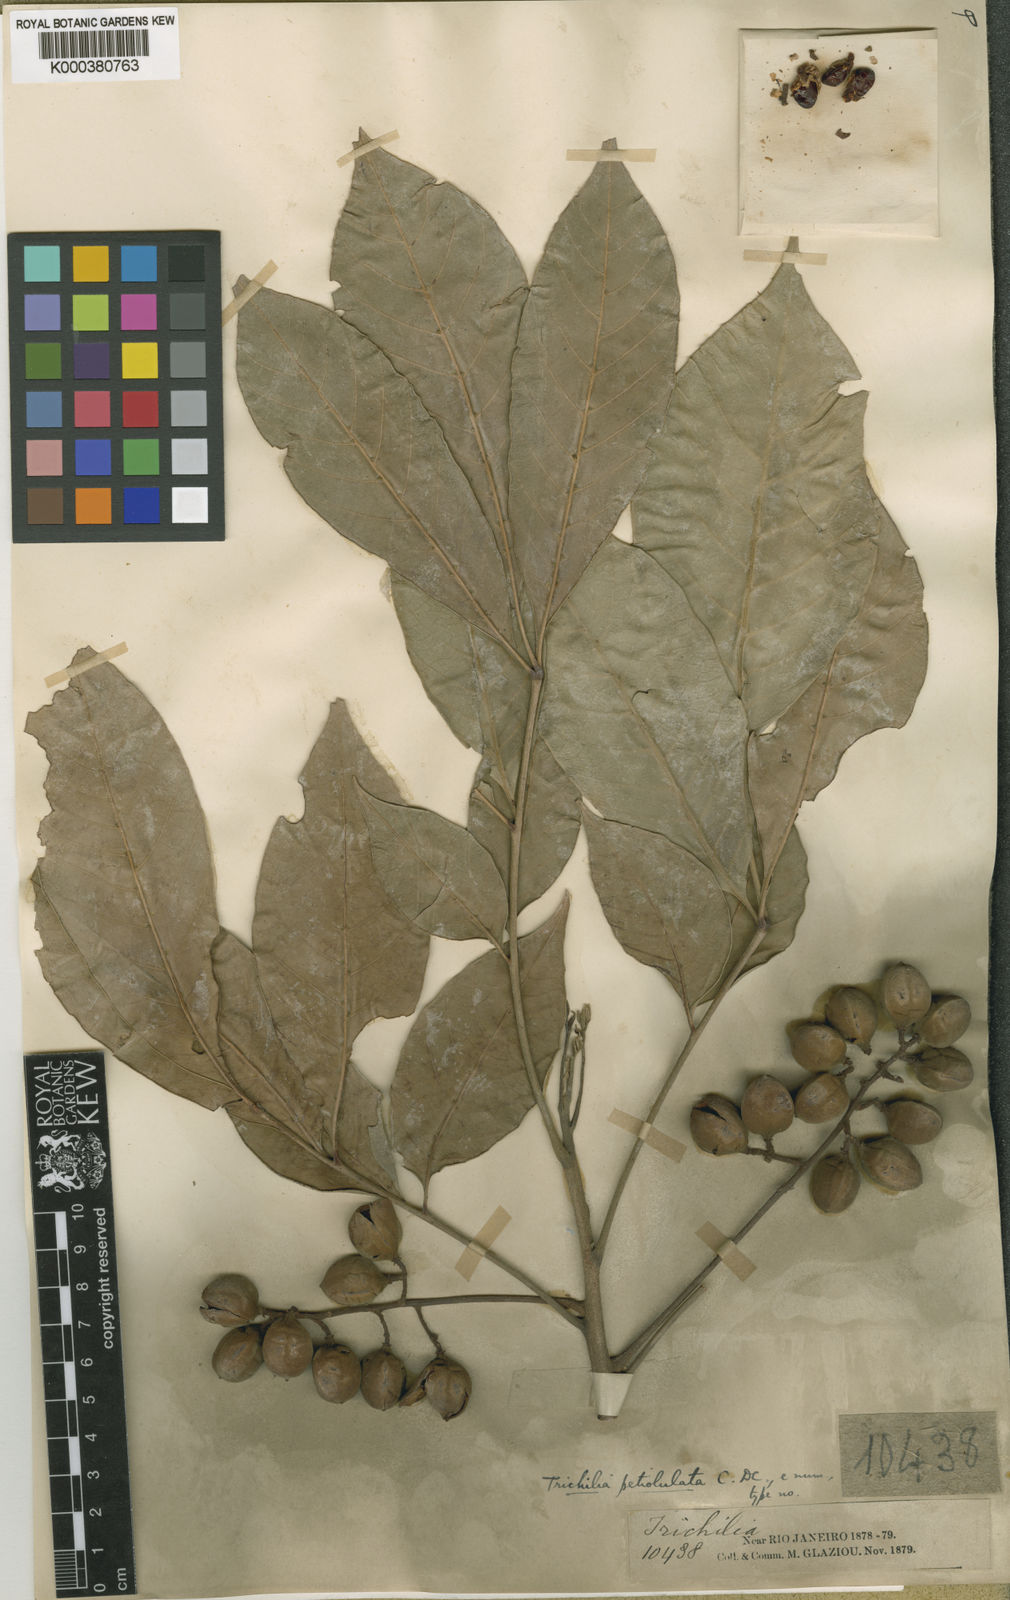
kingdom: Plantae
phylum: Tracheophyta
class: Magnoliopsida
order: Sapindales
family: Meliaceae
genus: Trichilia
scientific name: Trichilia pallens
